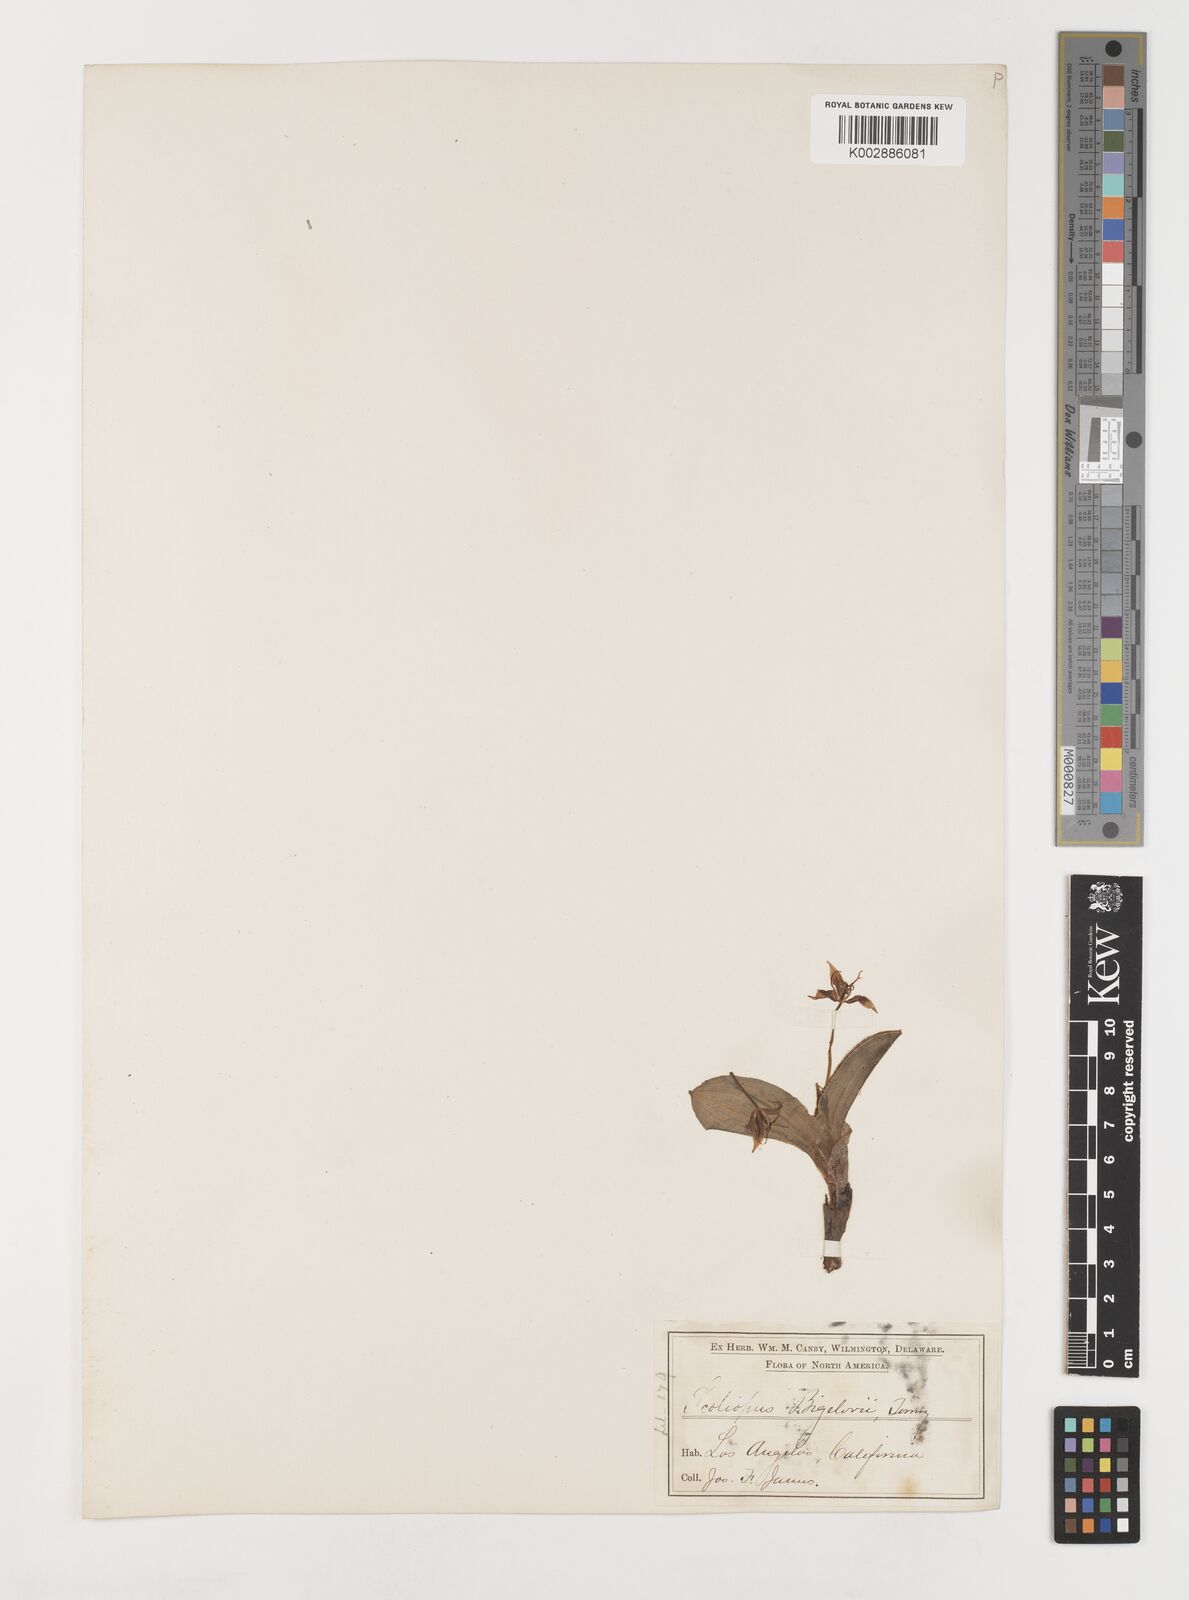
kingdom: Plantae
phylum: Tracheophyta
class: Liliopsida
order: Liliales
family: Liliaceae
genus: Scoliopus
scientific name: Scoliopus bigelovii
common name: Foetid adder's-tongue
